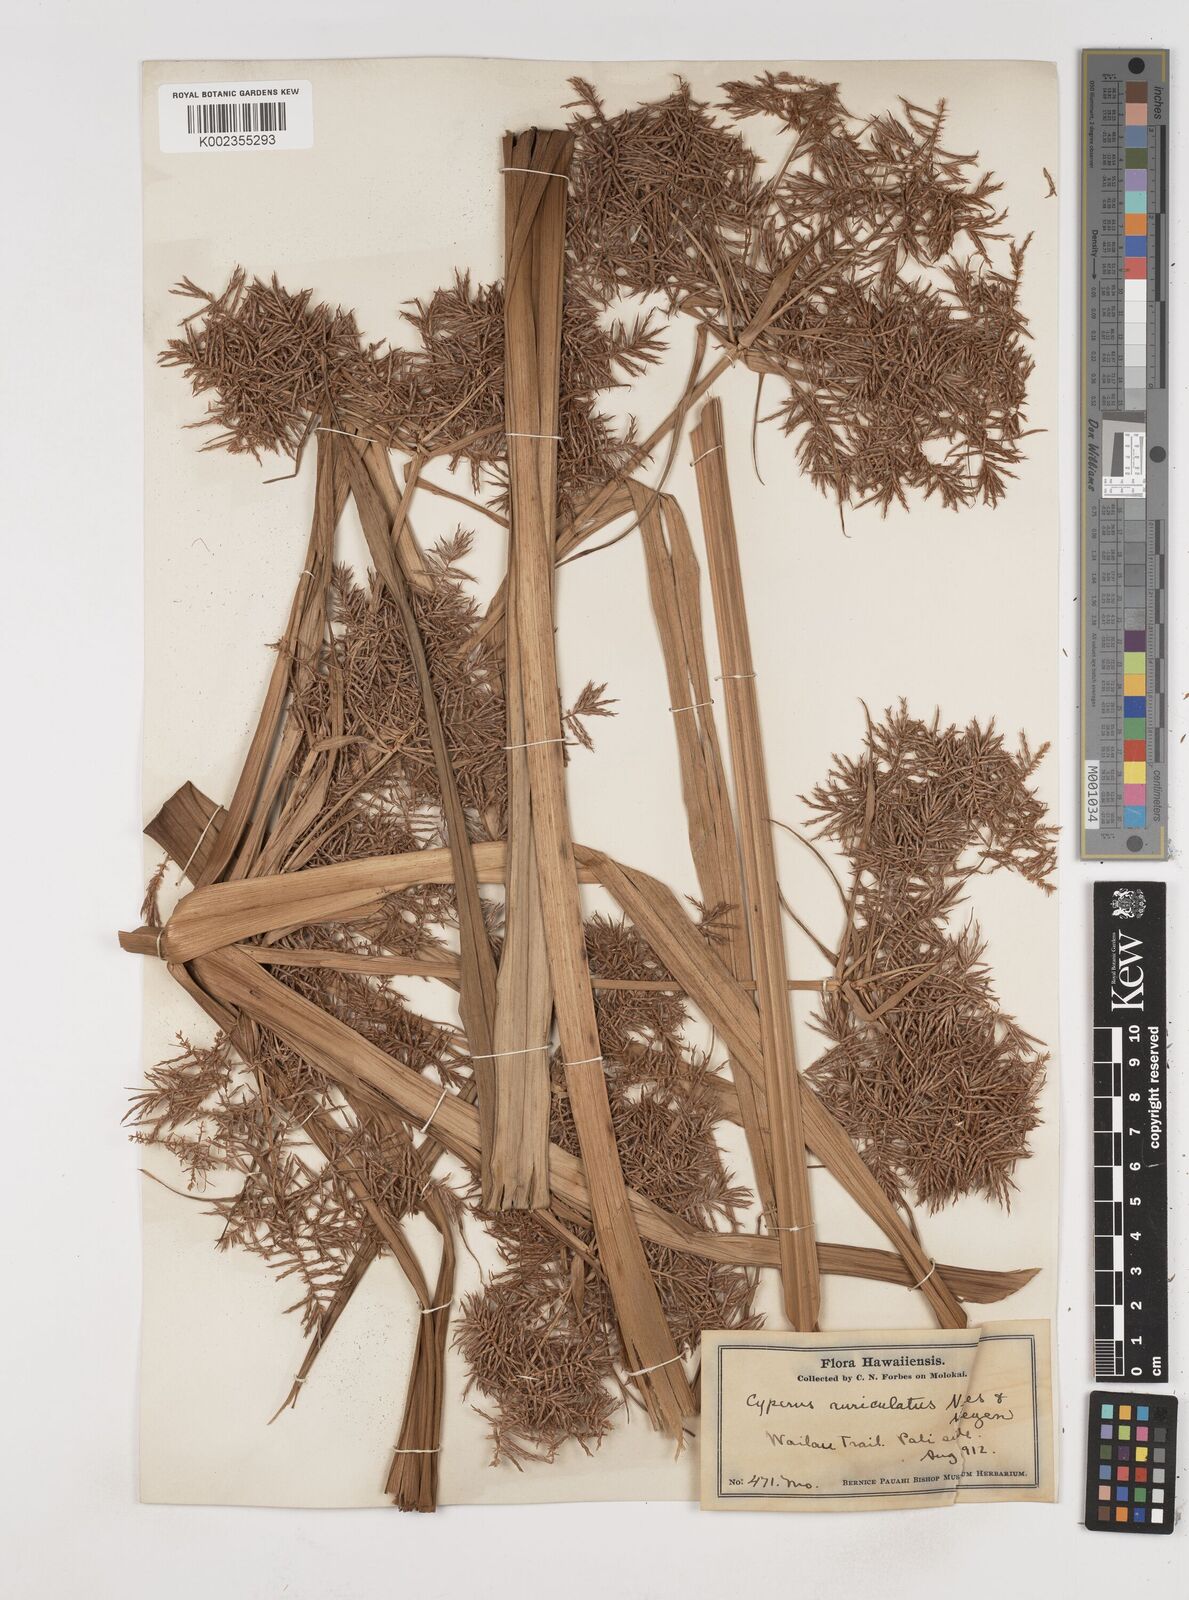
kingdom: Plantae
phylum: Tracheophyta
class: Liliopsida
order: Poales
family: Cyperaceae
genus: Cyperus
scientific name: Cyperus odoratus
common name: Fragrant flatsedge
